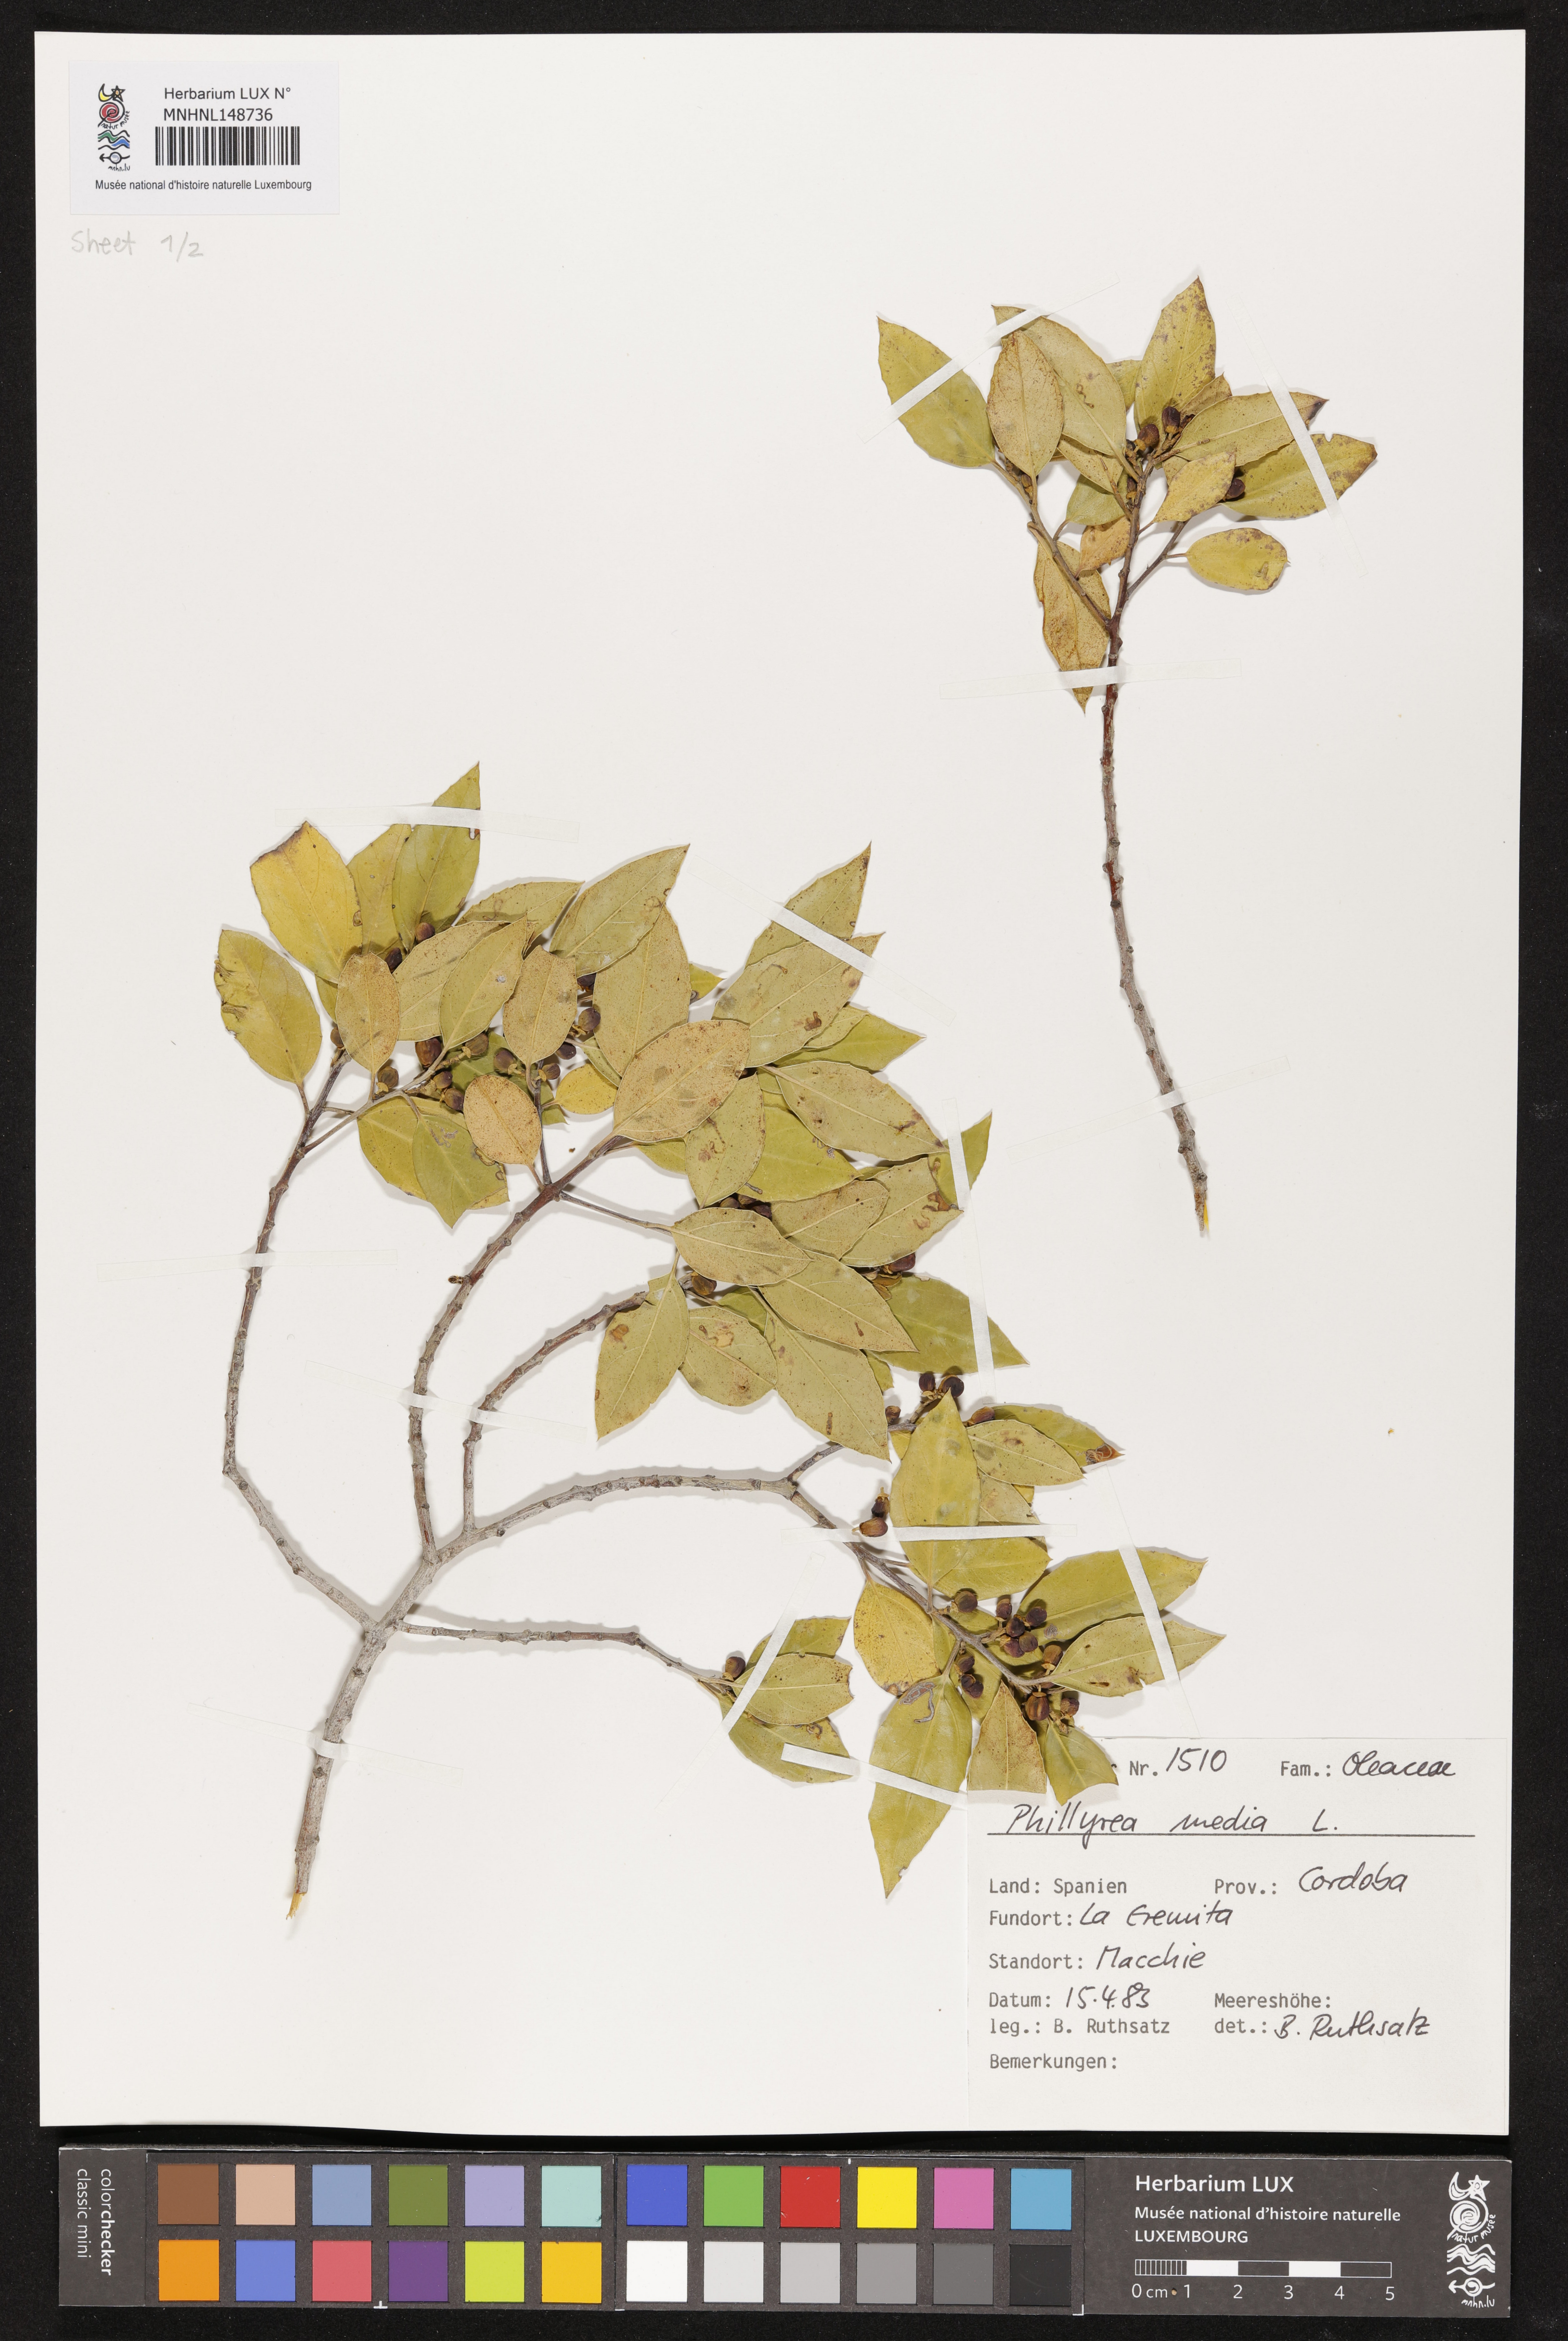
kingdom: Plantae
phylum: Tracheophyta
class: Magnoliopsida
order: Lamiales
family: Oleaceae
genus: Phillyrea
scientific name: Phillyrea latifolia
